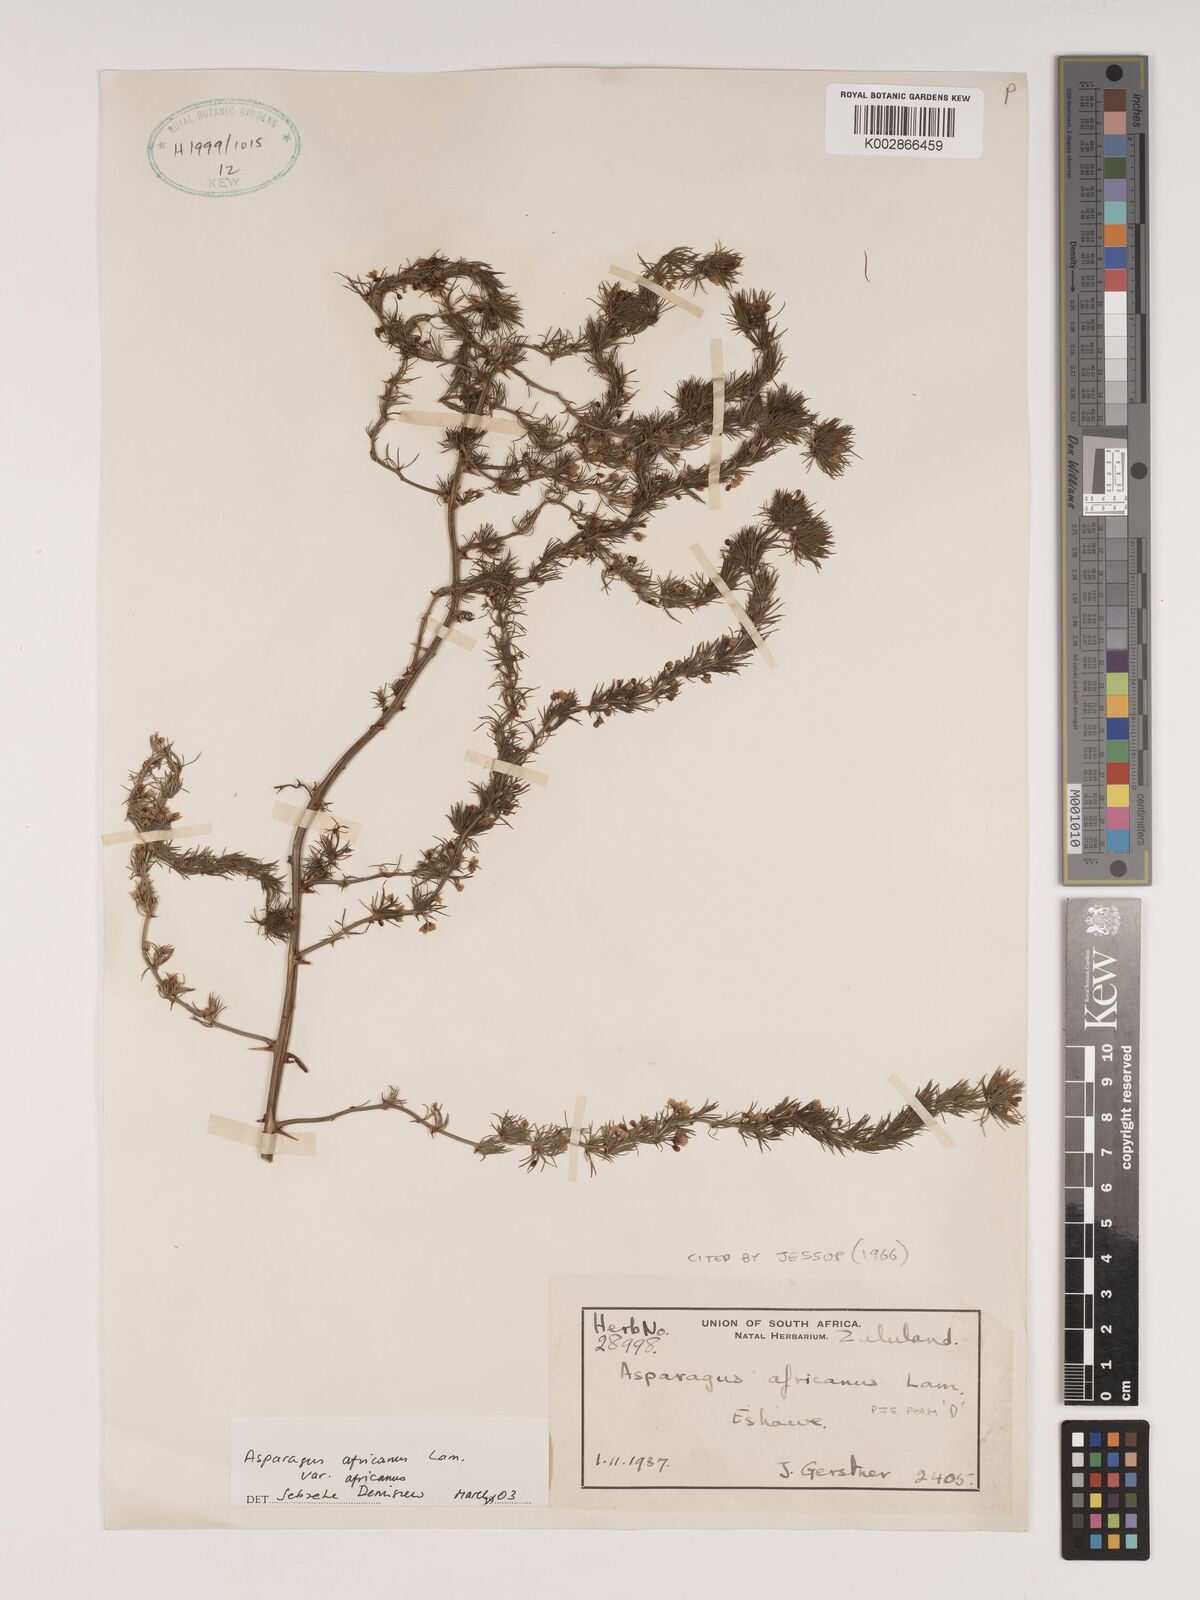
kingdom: Plantae
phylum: Tracheophyta
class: Liliopsida
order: Asparagales
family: Asparagaceae
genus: Asparagus
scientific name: Asparagus africanus
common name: Asparagus-fern
